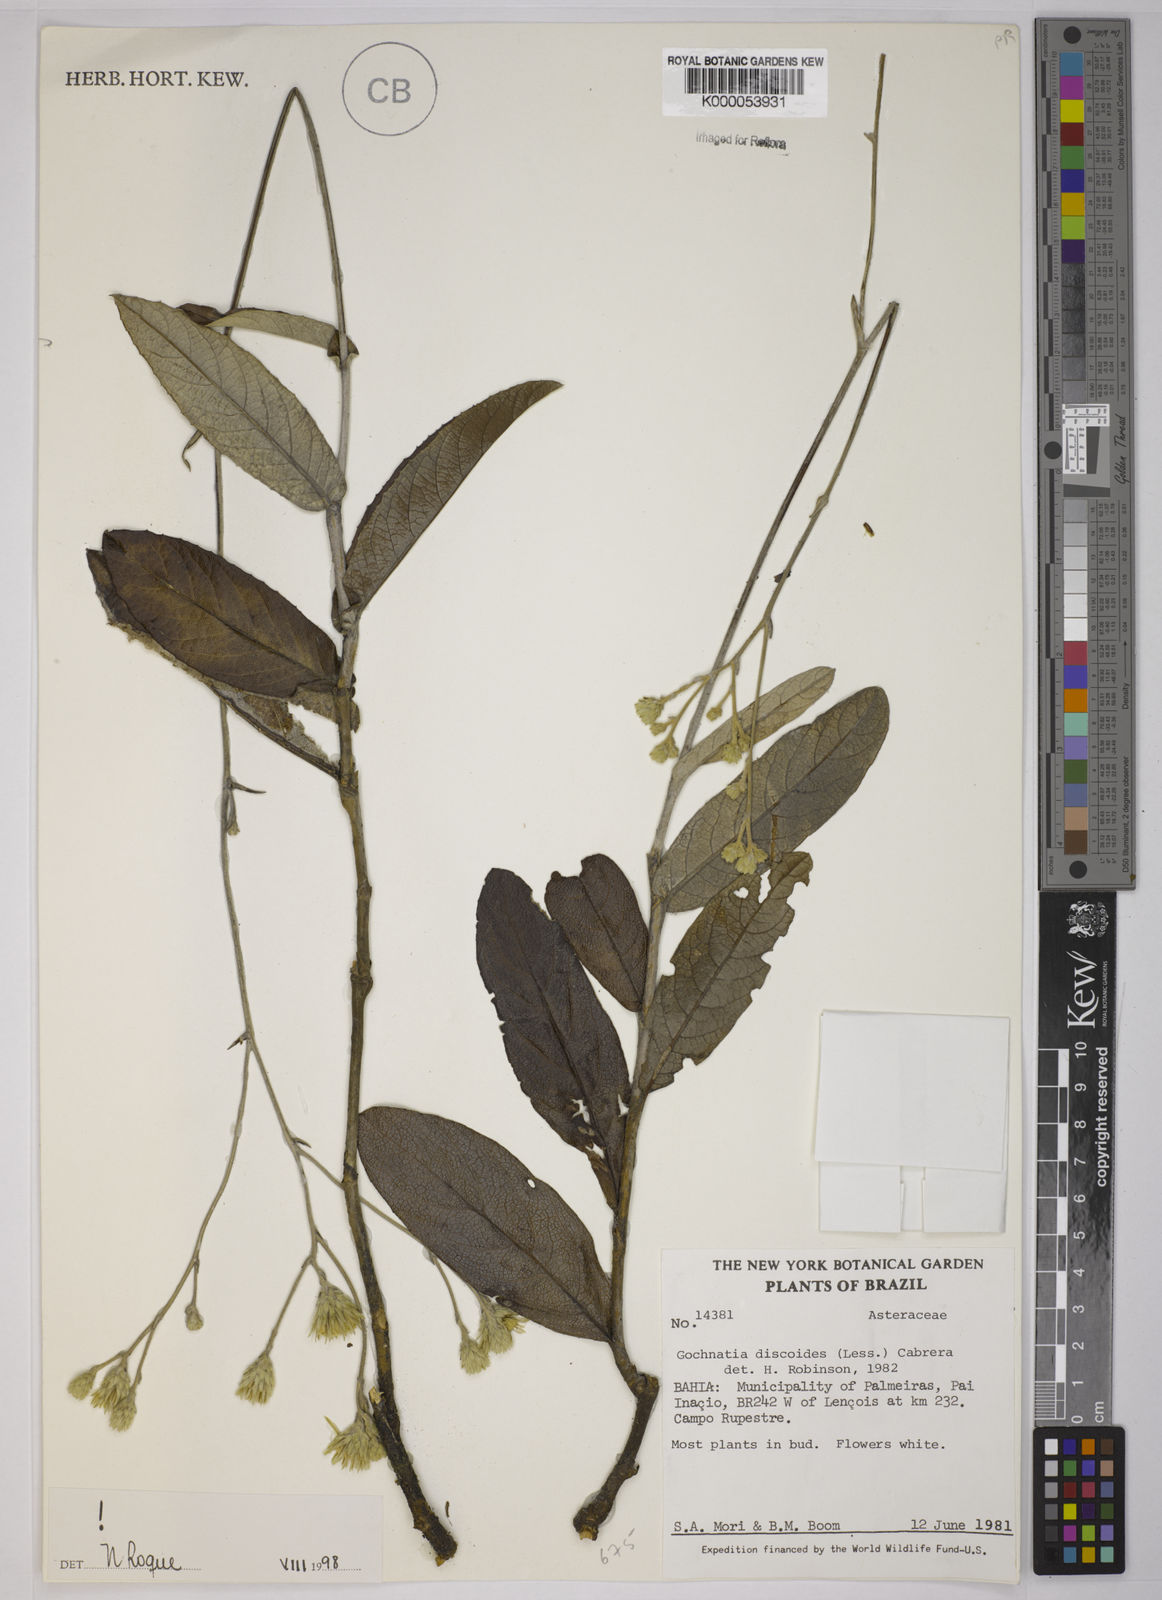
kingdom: Plantae
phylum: Tracheophyta
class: Magnoliopsida
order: Asterales
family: Asteraceae
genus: Richterago
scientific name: Richterago discoidea
